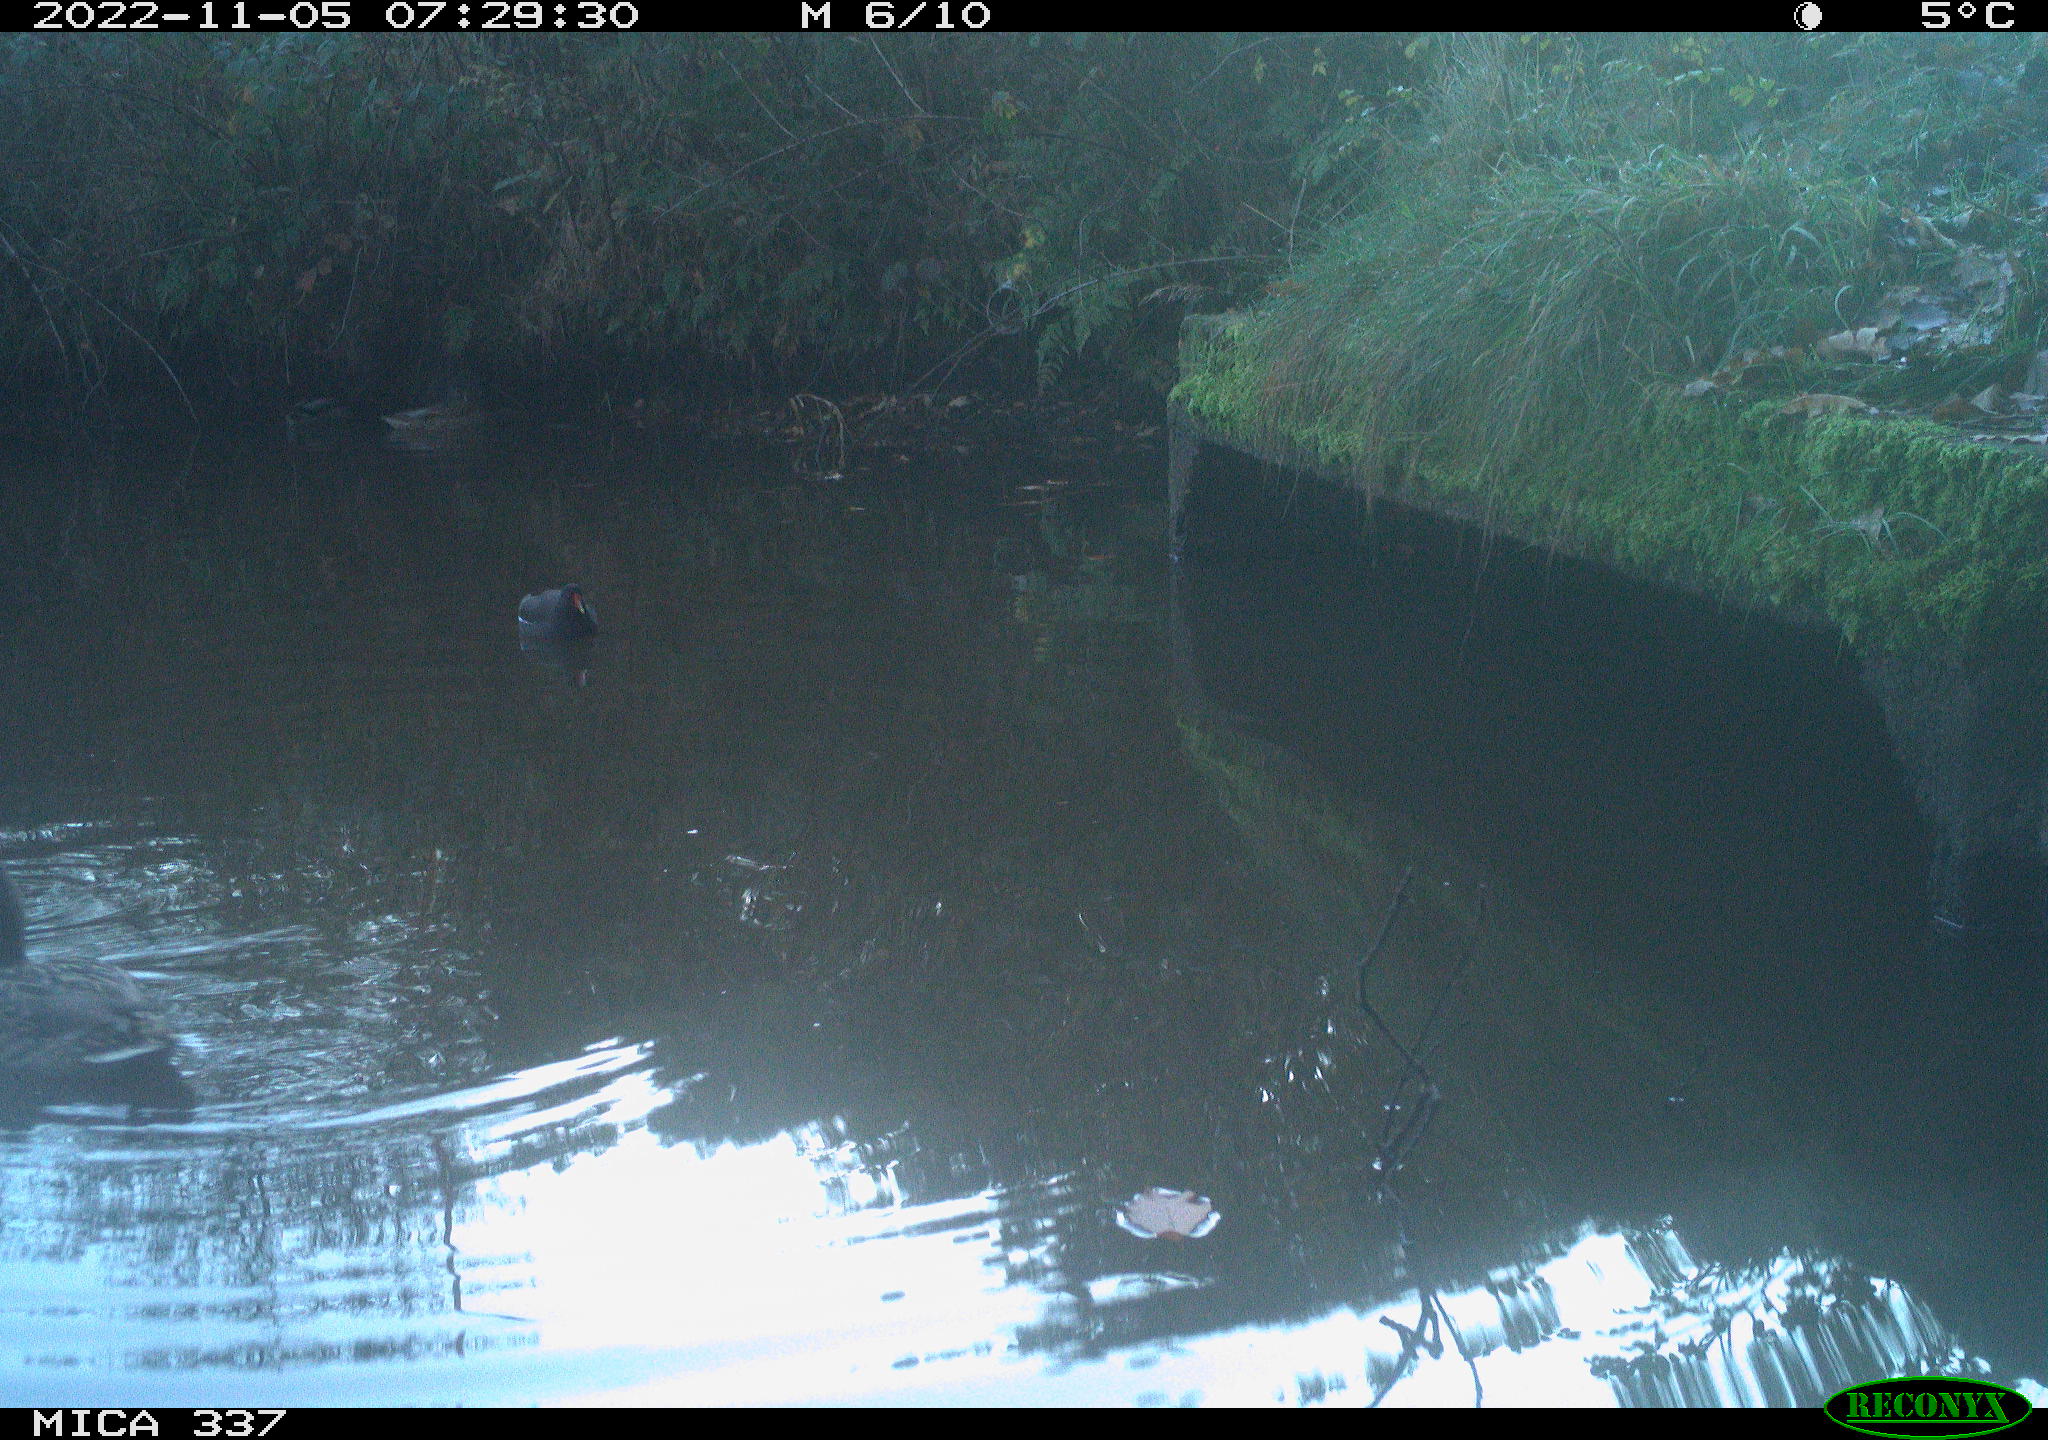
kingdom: Animalia
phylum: Chordata
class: Aves
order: Gruiformes
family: Rallidae
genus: Gallinula
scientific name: Gallinula chloropus
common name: Common moorhen
